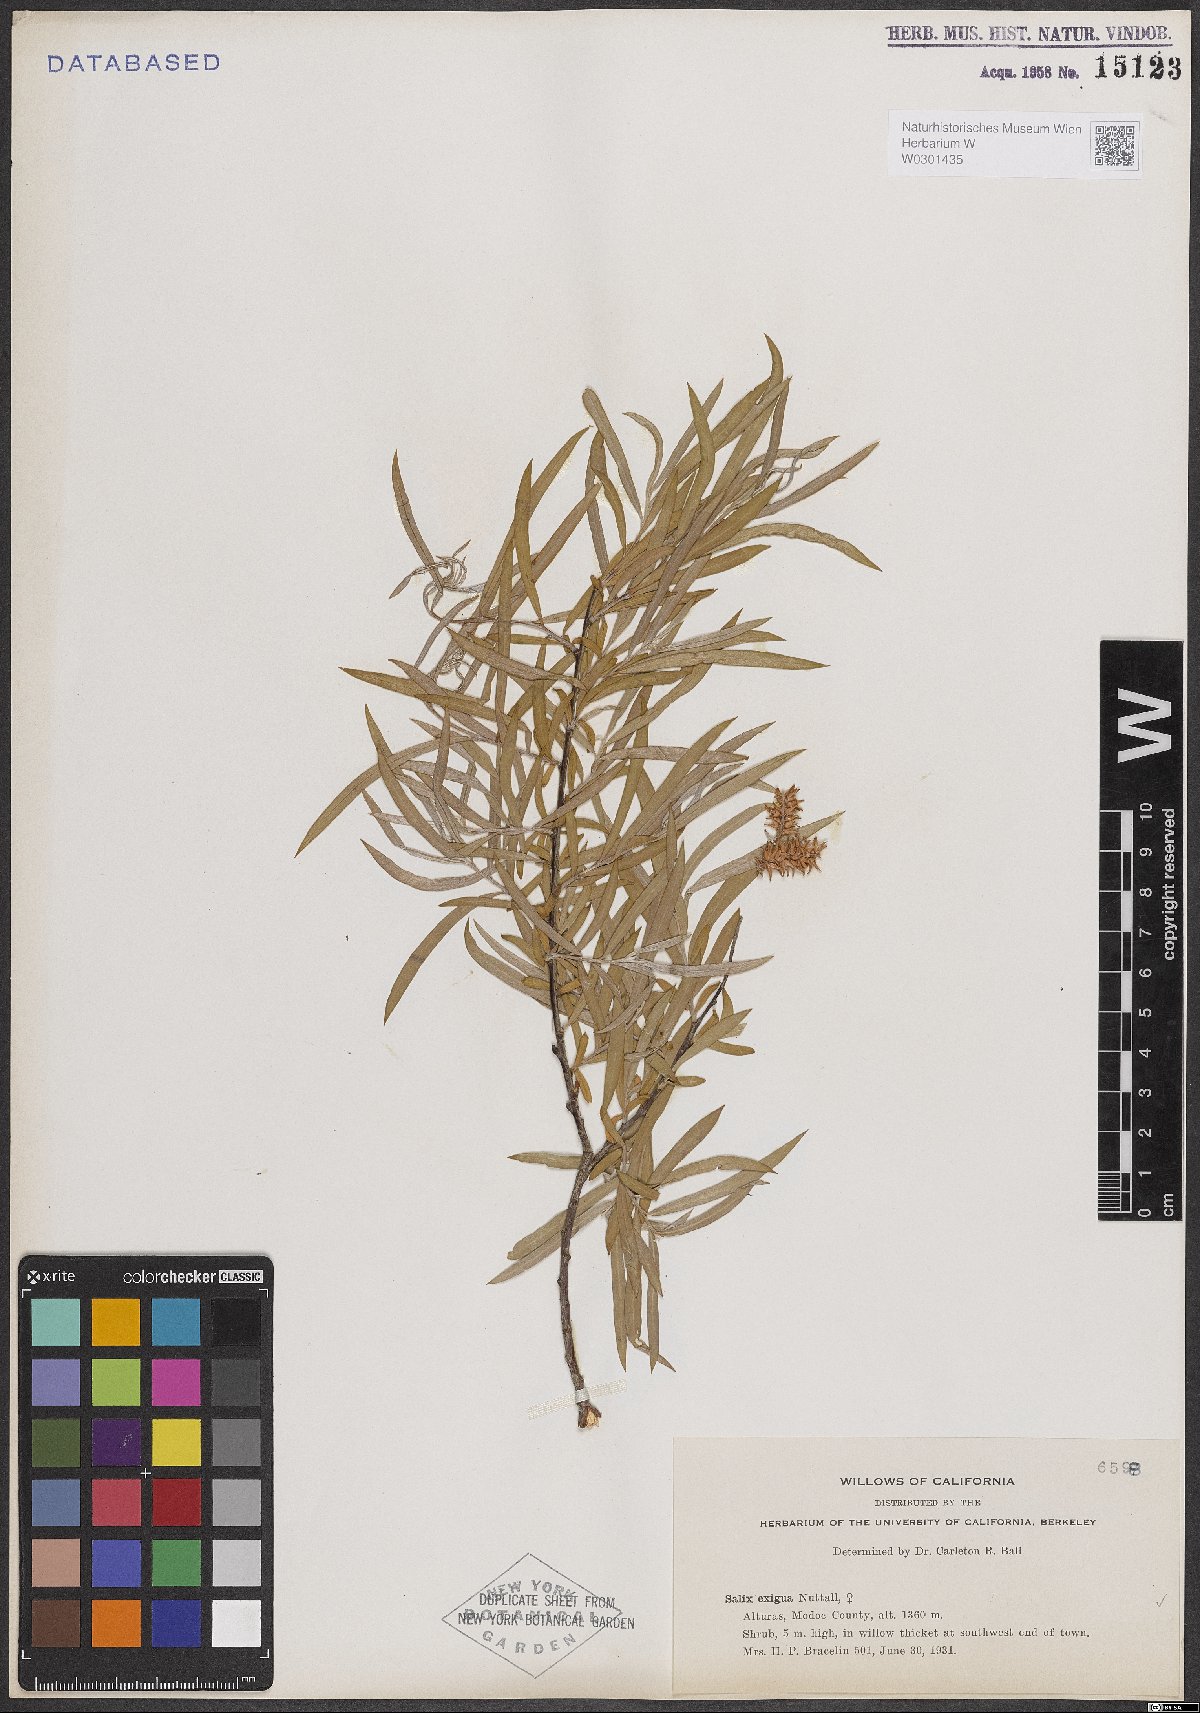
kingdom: Plantae
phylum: Tracheophyta
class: Magnoliopsida
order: Malpighiales
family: Salicaceae
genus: Salix
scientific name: Salix exigua
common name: Coyote willow
